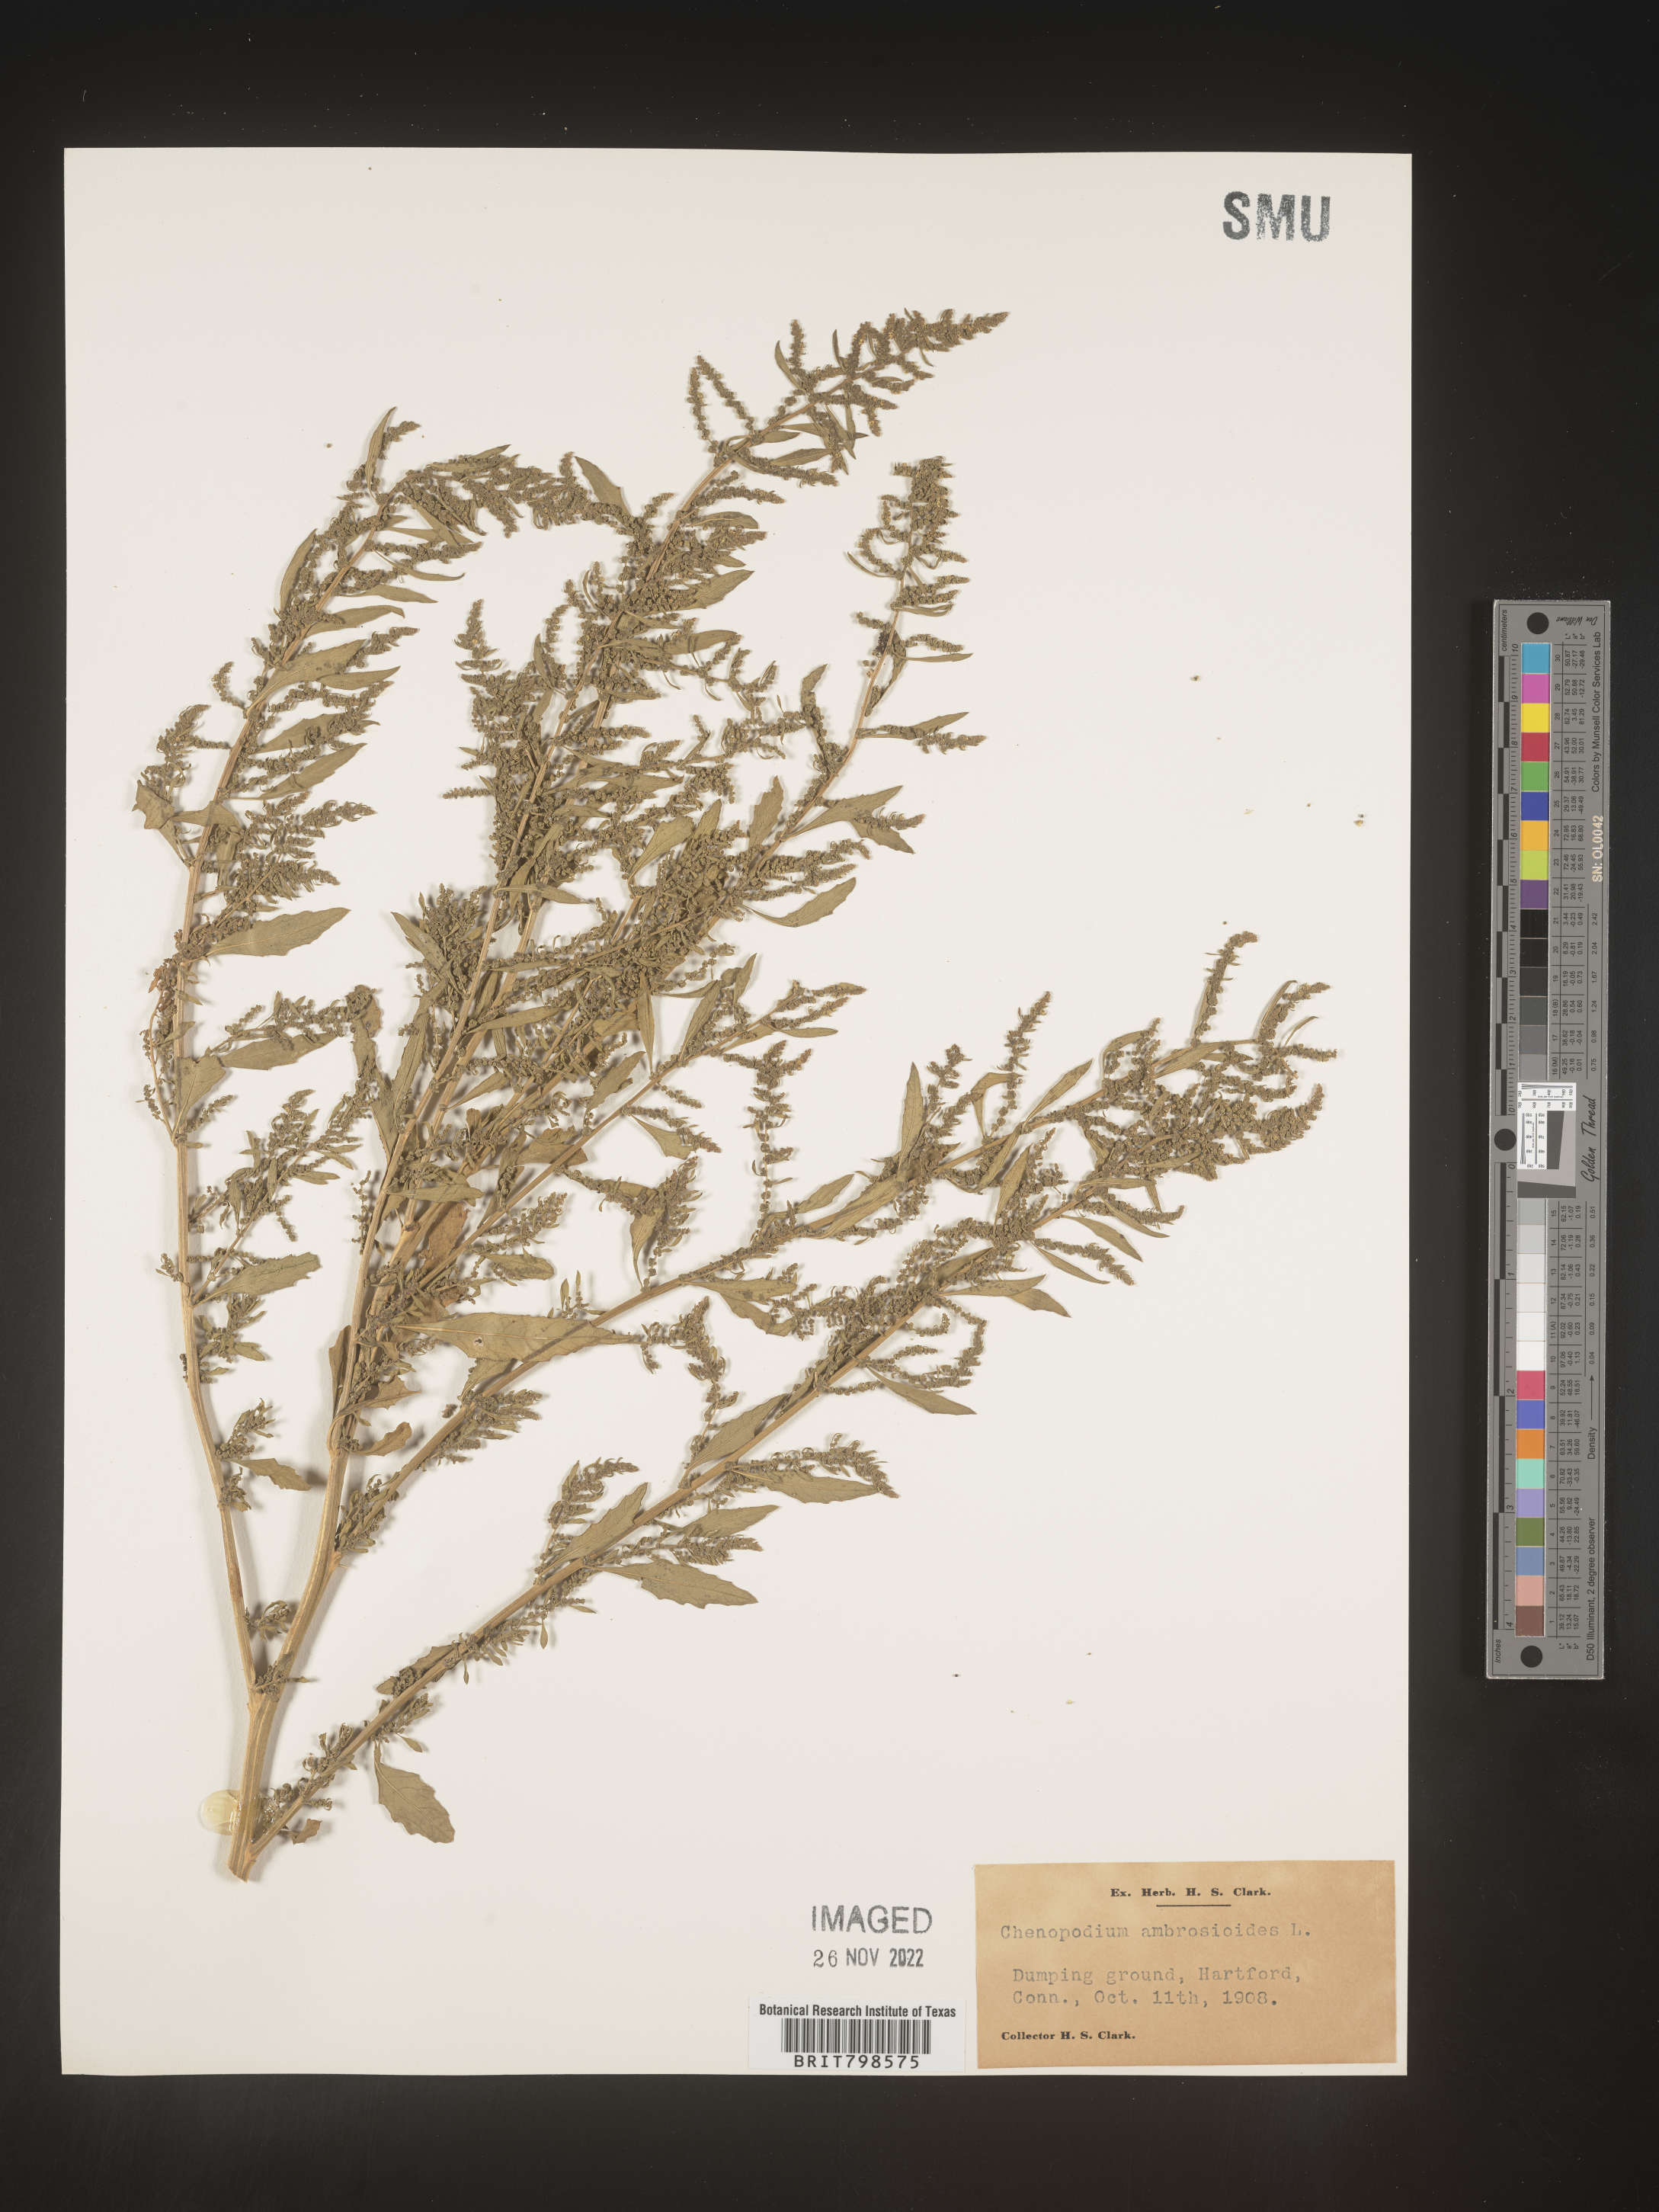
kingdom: Plantae
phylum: Tracheophyta
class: Magnoliopsida
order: Caryophyllales
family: Amaranthaceae
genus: Dysphania
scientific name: Dysphania ambrosioides
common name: Wormseed
